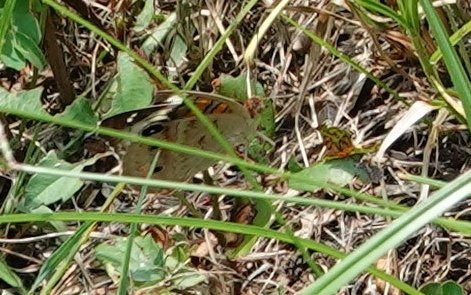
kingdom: Animalia
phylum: Arthropoda
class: Insecta
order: Lepidoptera
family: Nymphalidae
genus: Junonia
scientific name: Junonia coenia
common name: Common Buckeye
